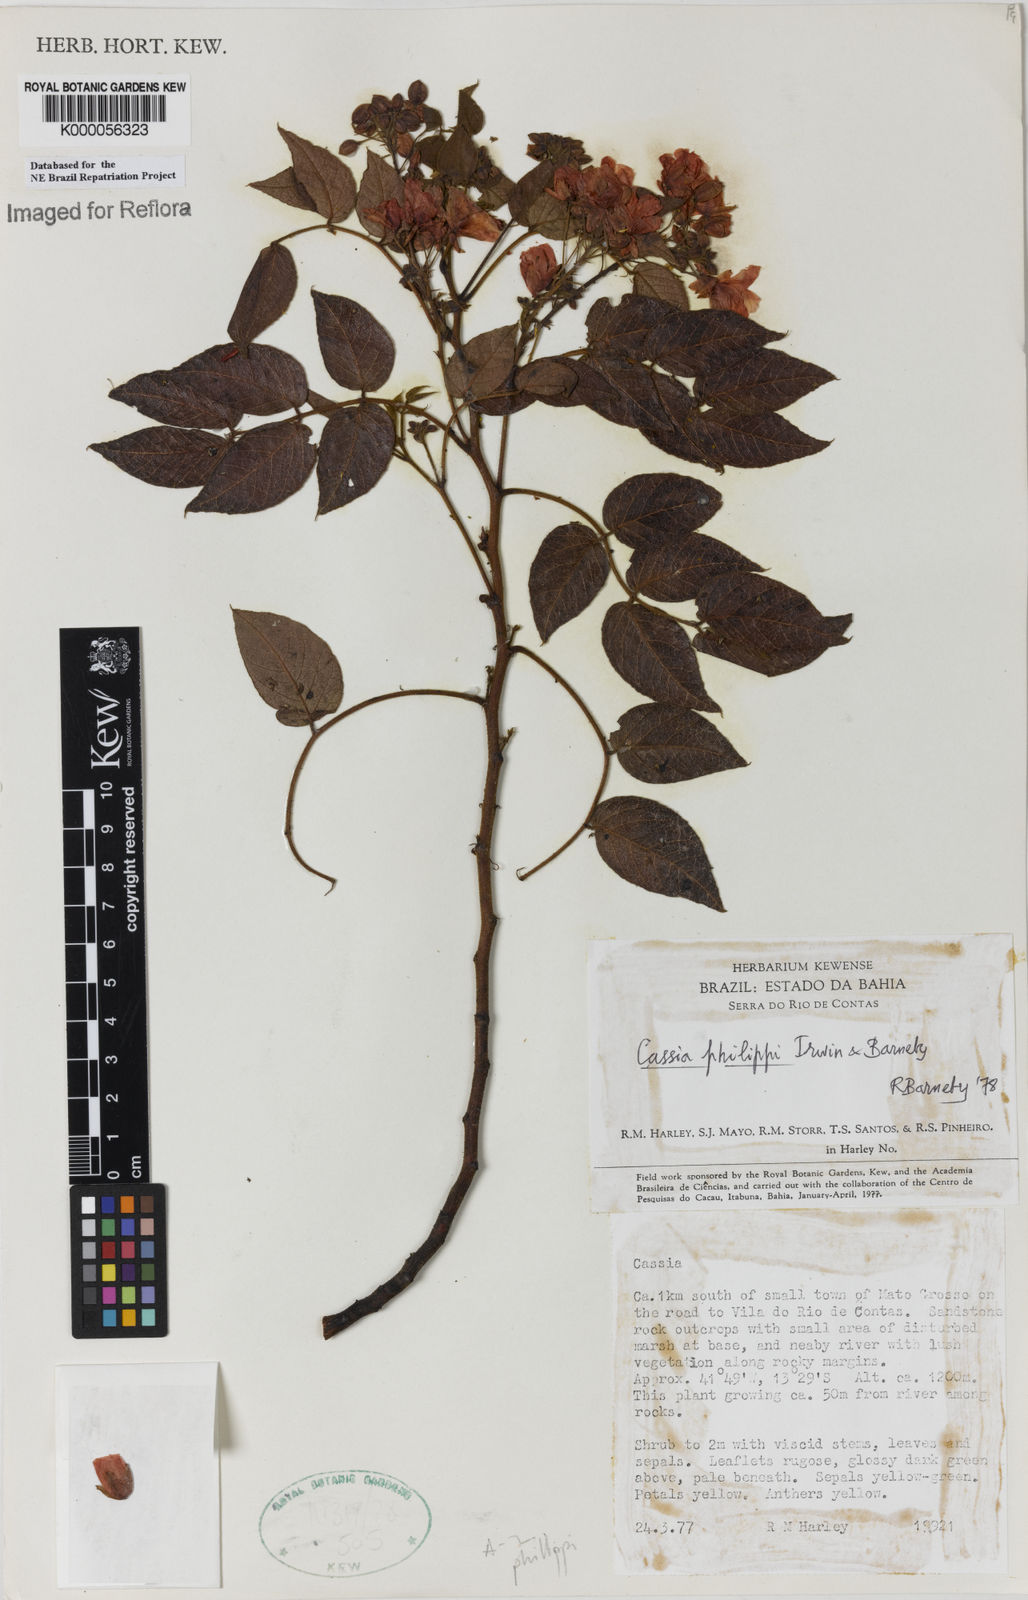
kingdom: Plantae
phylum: Tracheophyta
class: Magnoliopsida
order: Fabales
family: Fabaceae
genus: Chamaecrista
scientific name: Chamaecrista philippii
